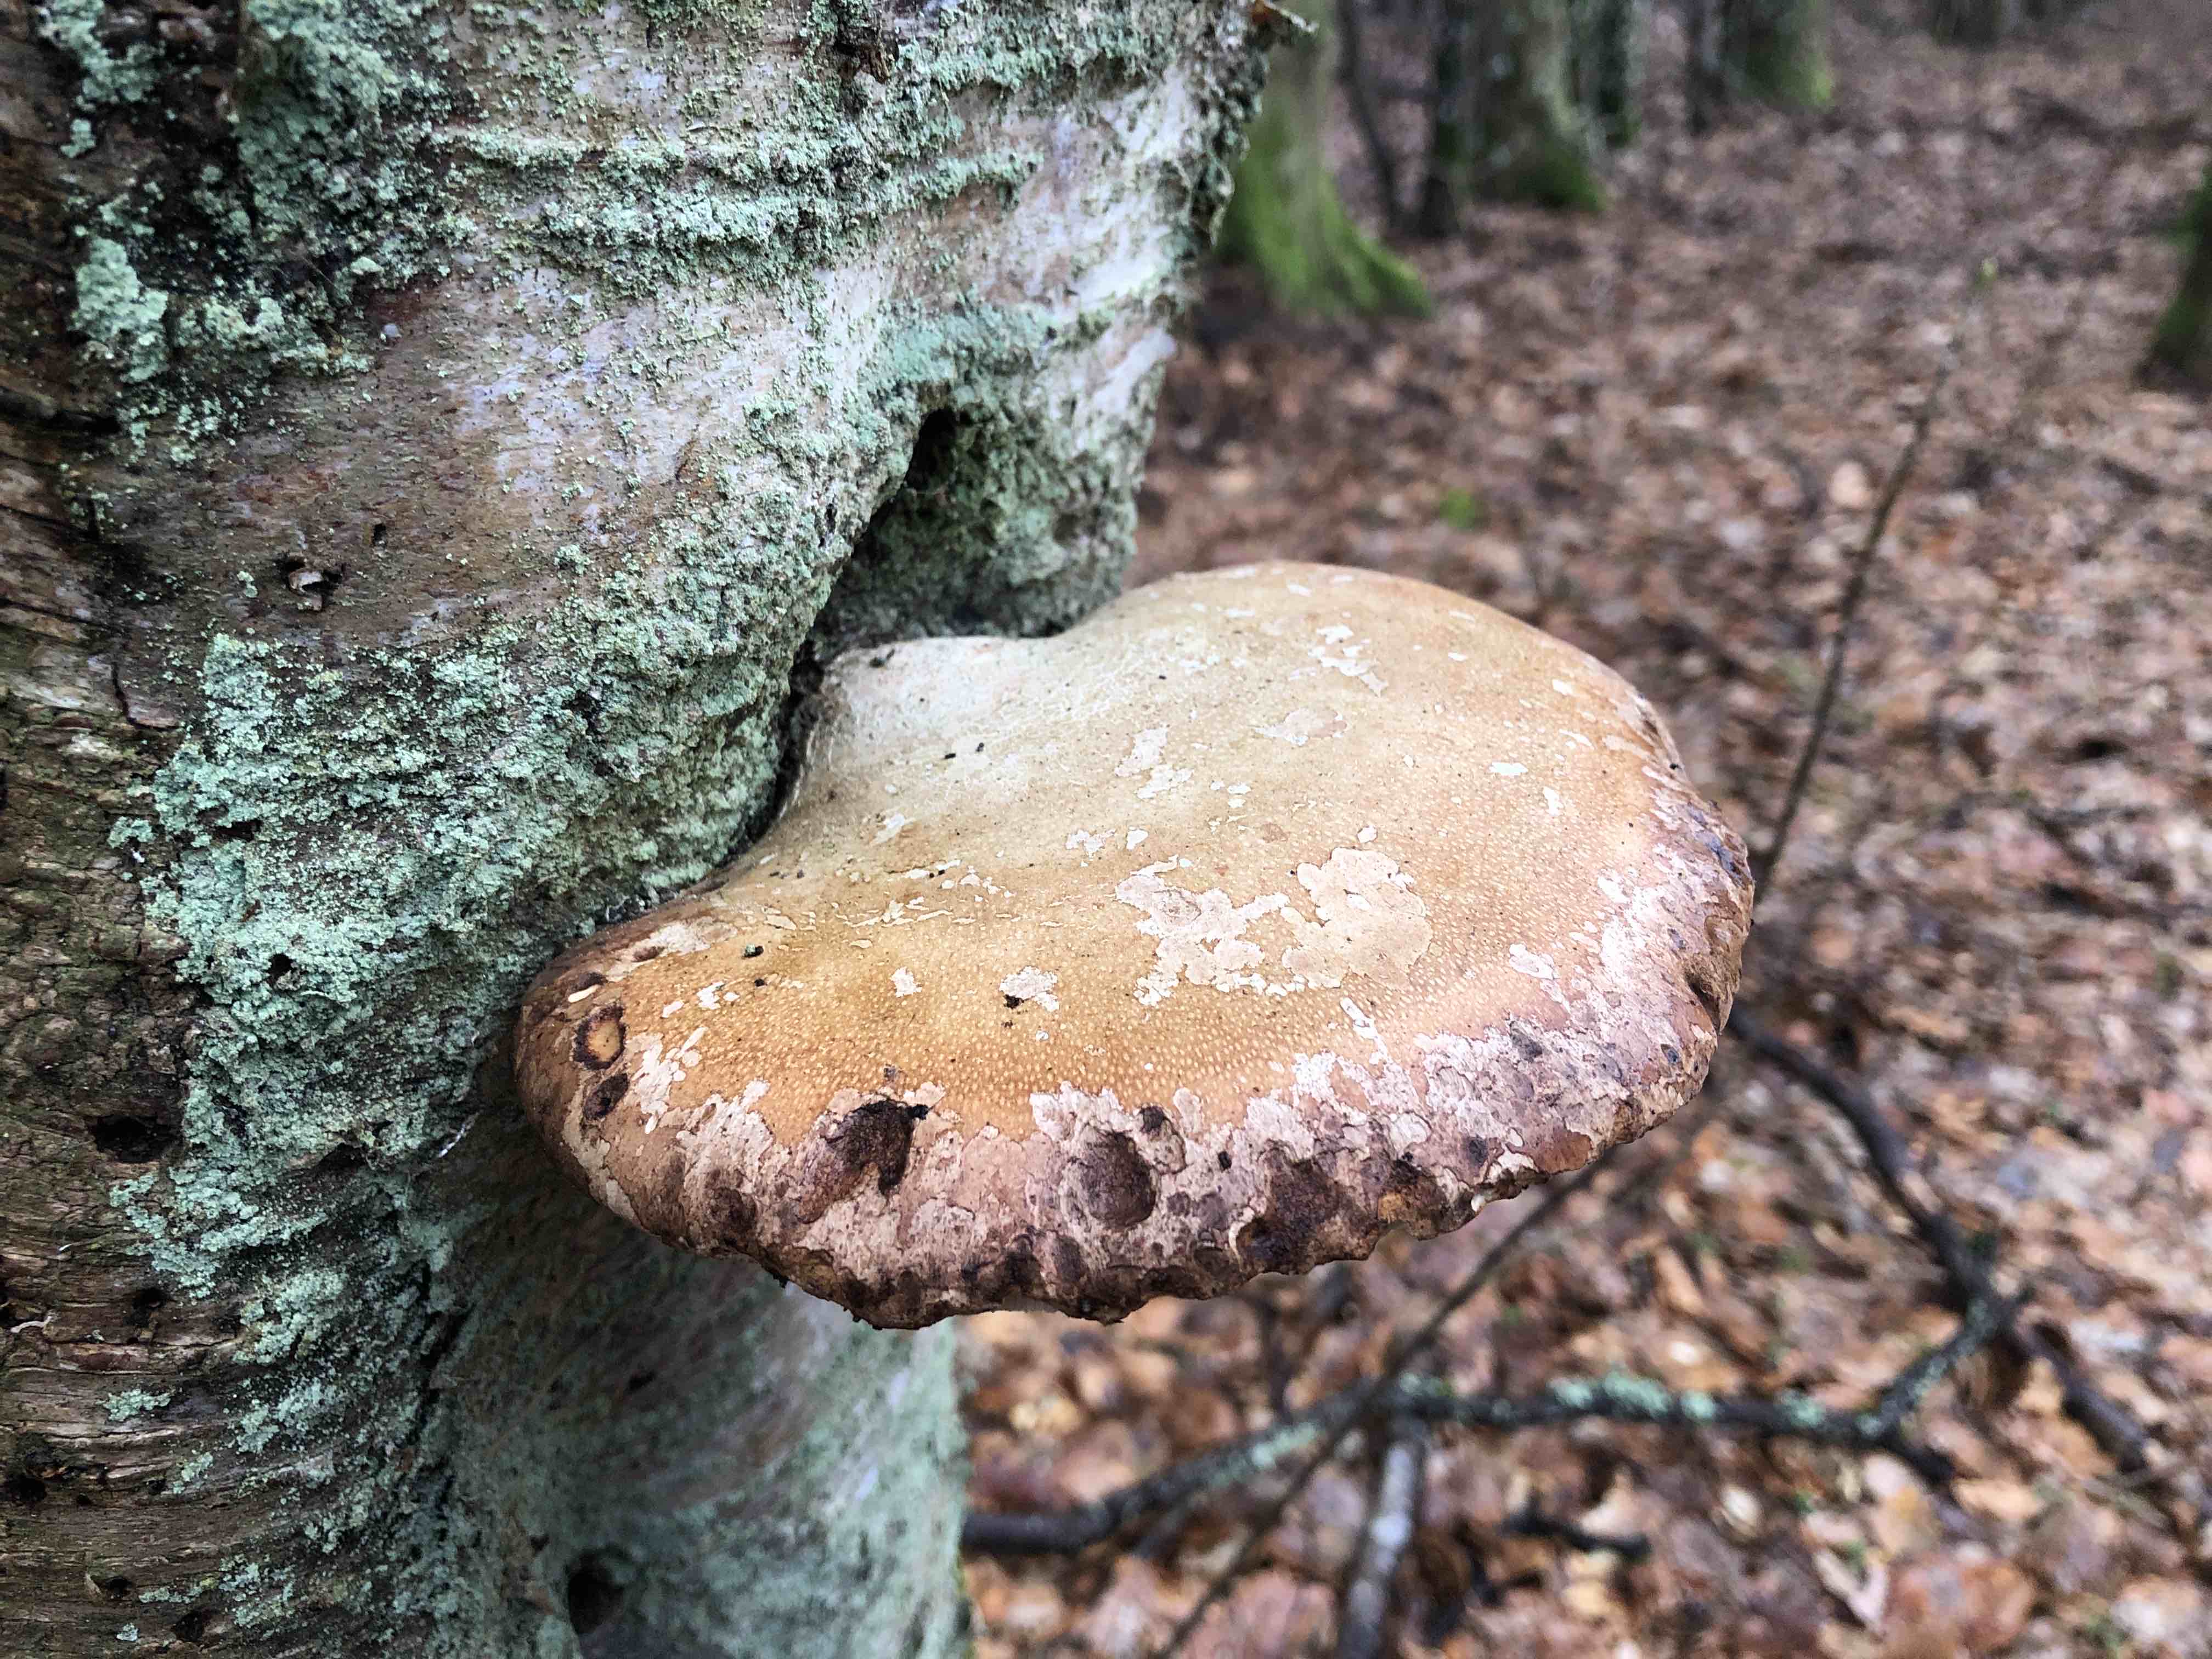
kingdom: Fungi
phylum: Basidiomycota
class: Agaricomycetes
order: Polyporales
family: Fomitopsidaceae
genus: Fomitopsis
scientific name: Fomitopsis betulina
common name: birkeporesvamp
